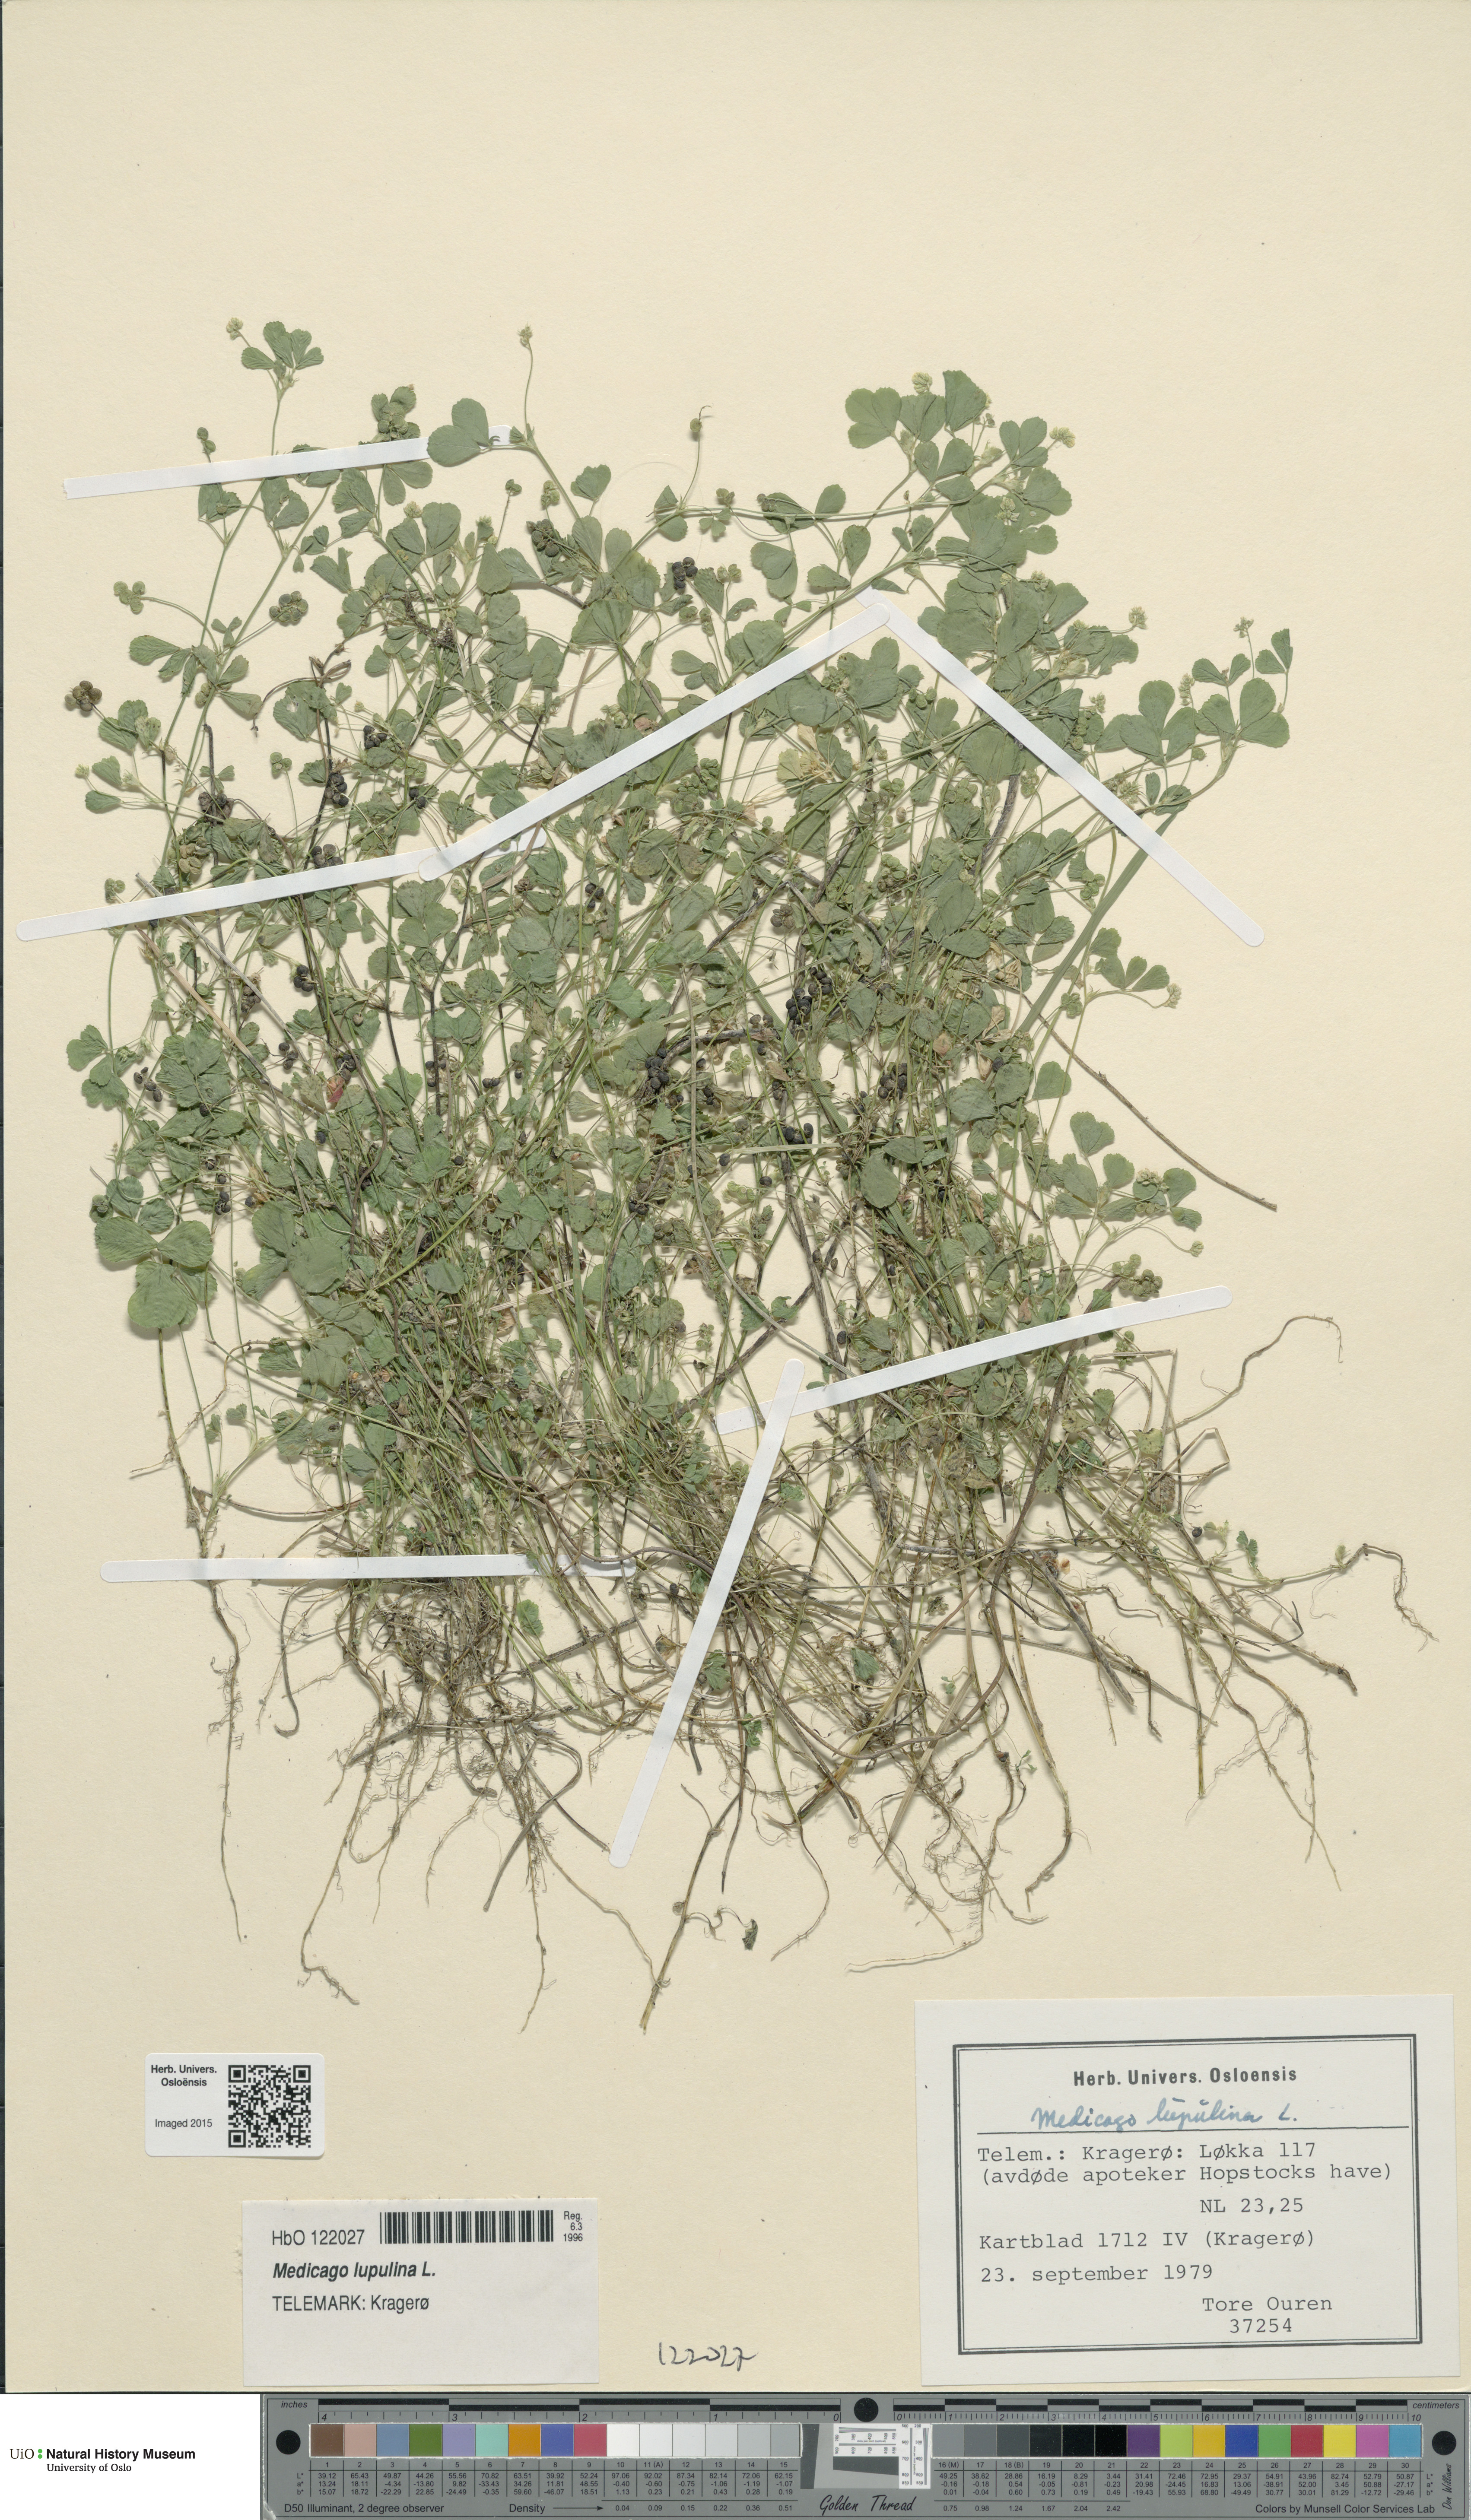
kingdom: Plantae
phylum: Tracheophyta
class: Magnoliopsida
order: Fabales
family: Fabaceae
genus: Medicago
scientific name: Medicago lupulina
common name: Black medick
